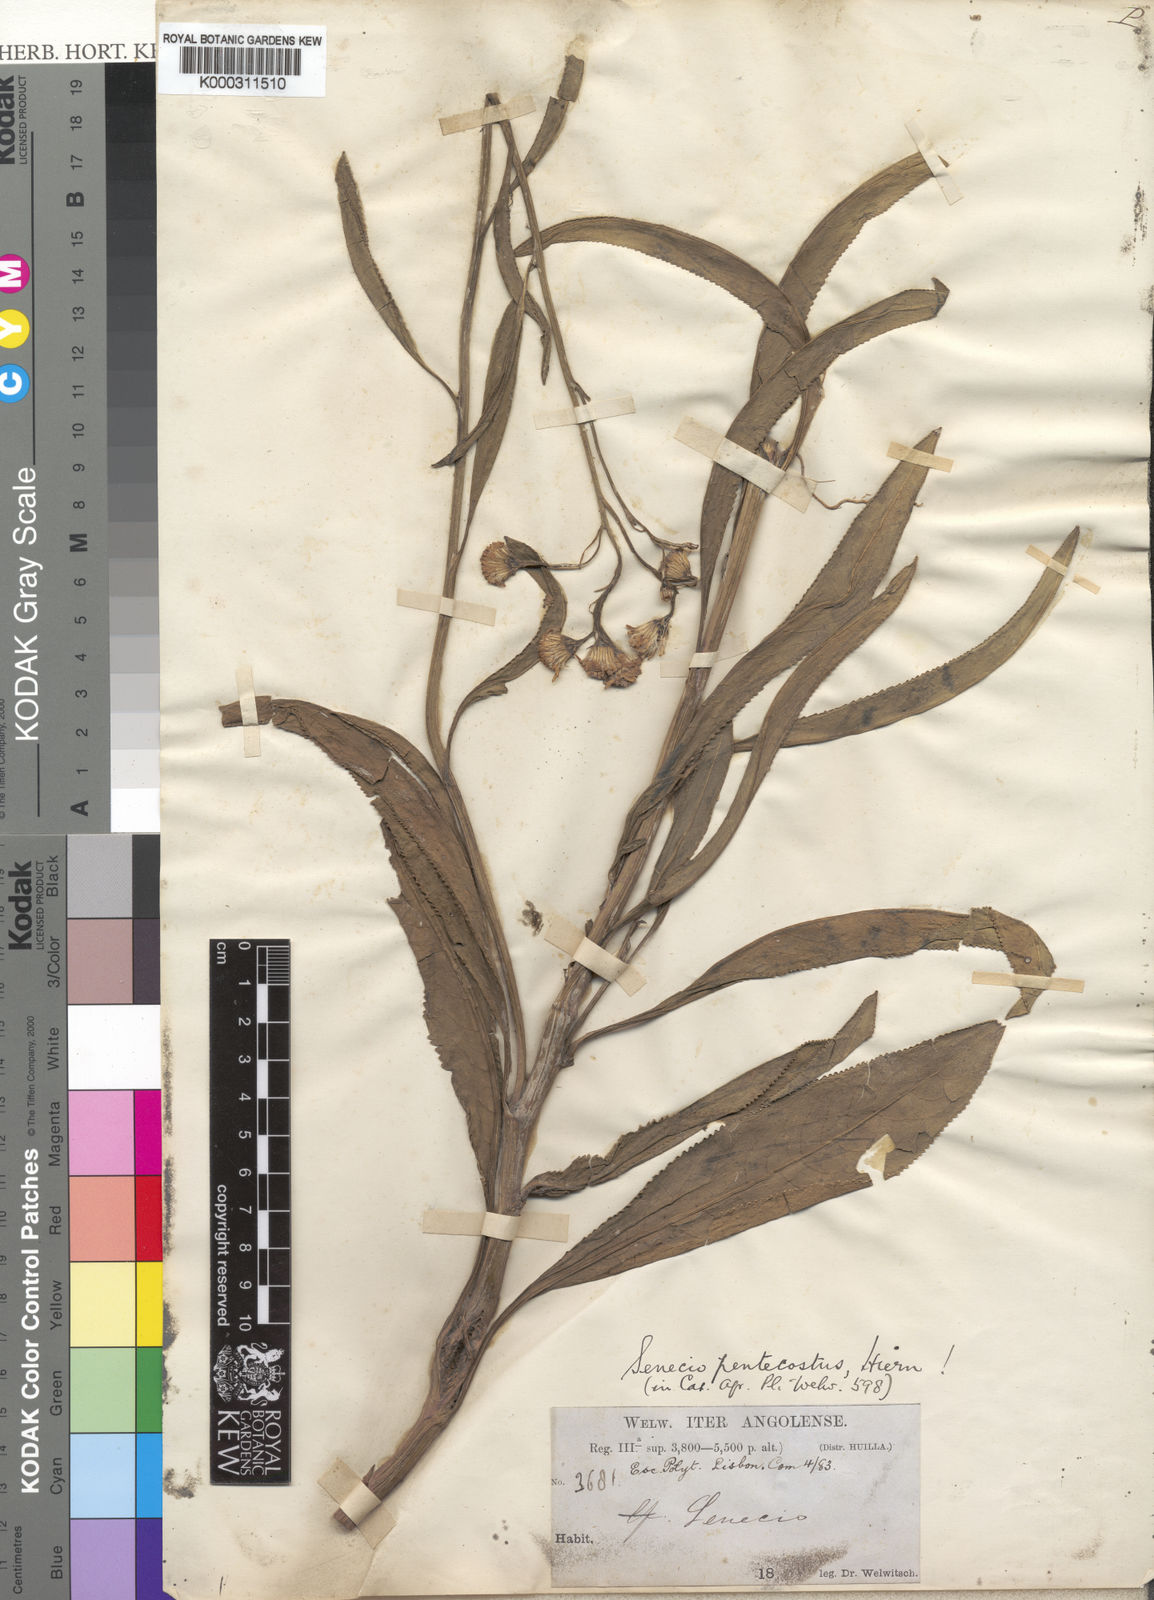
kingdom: Plantae
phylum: Tracheophyta
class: Magnoliopsida
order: Asterales
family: Asteraceae
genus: Senecio
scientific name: Senecio pentecostus
